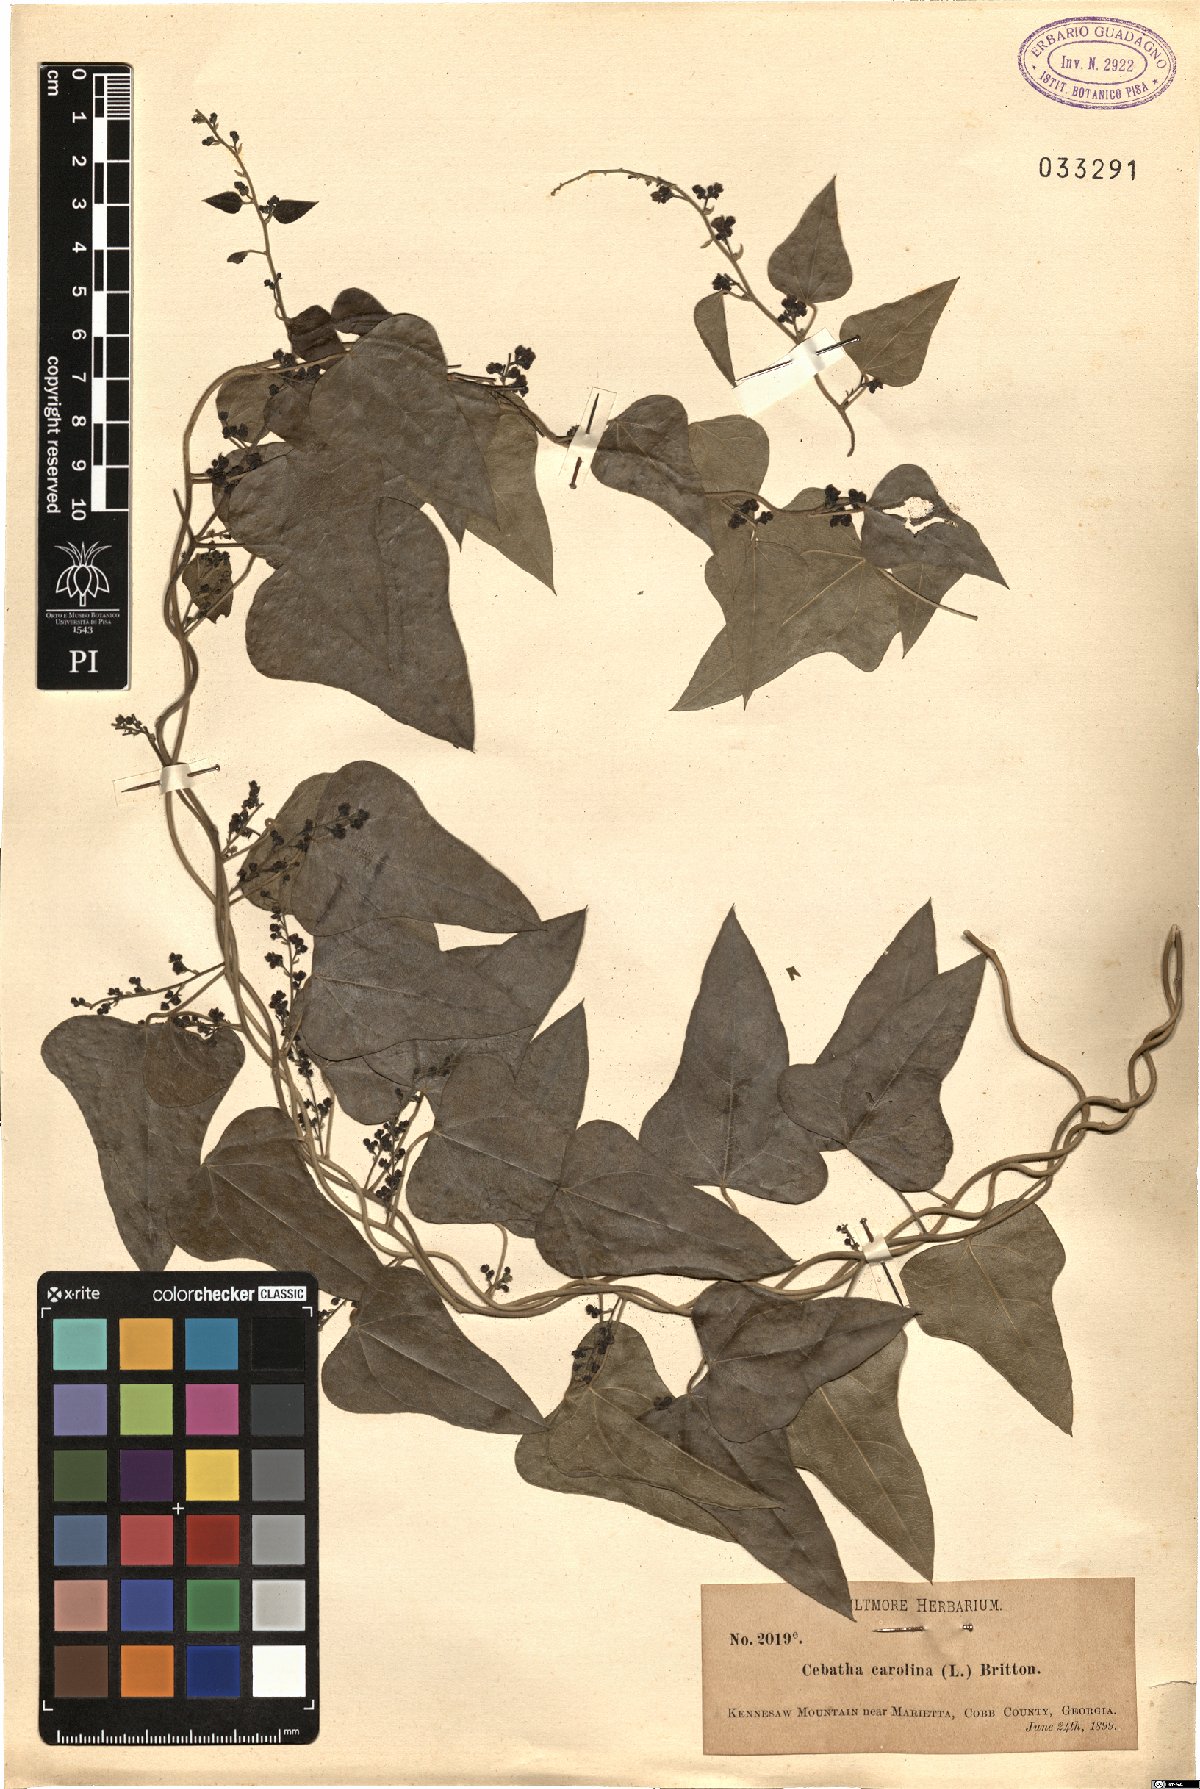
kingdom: Plantae
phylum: Tracheophyta
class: Magnoliopsida
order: Ranunculales
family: Menispermaceae
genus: Cocculus
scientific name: Cocculus carolinus
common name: Carolina moonseed
